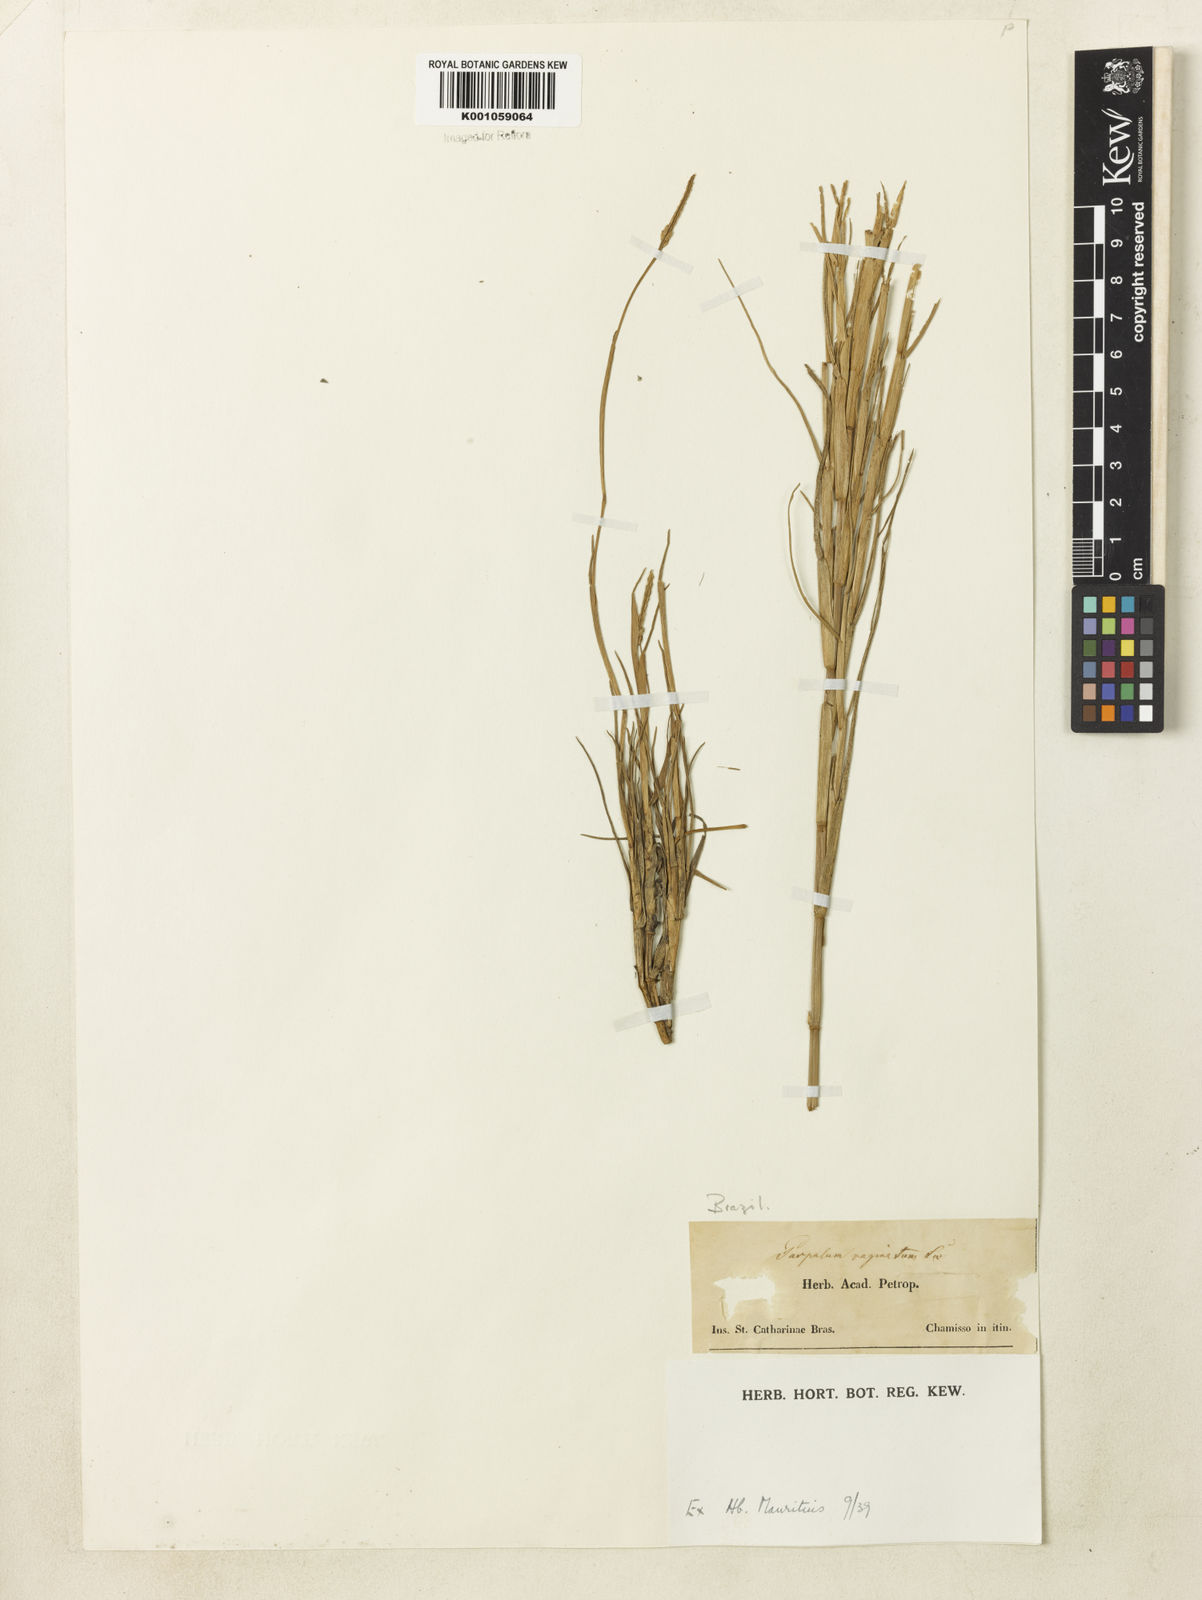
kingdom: Plantae
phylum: Tracheophyta
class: Liliopsida
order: Poales
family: Poaceae
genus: Paspalum
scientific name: Paspalum vaginatum
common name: Seashore paspalum
